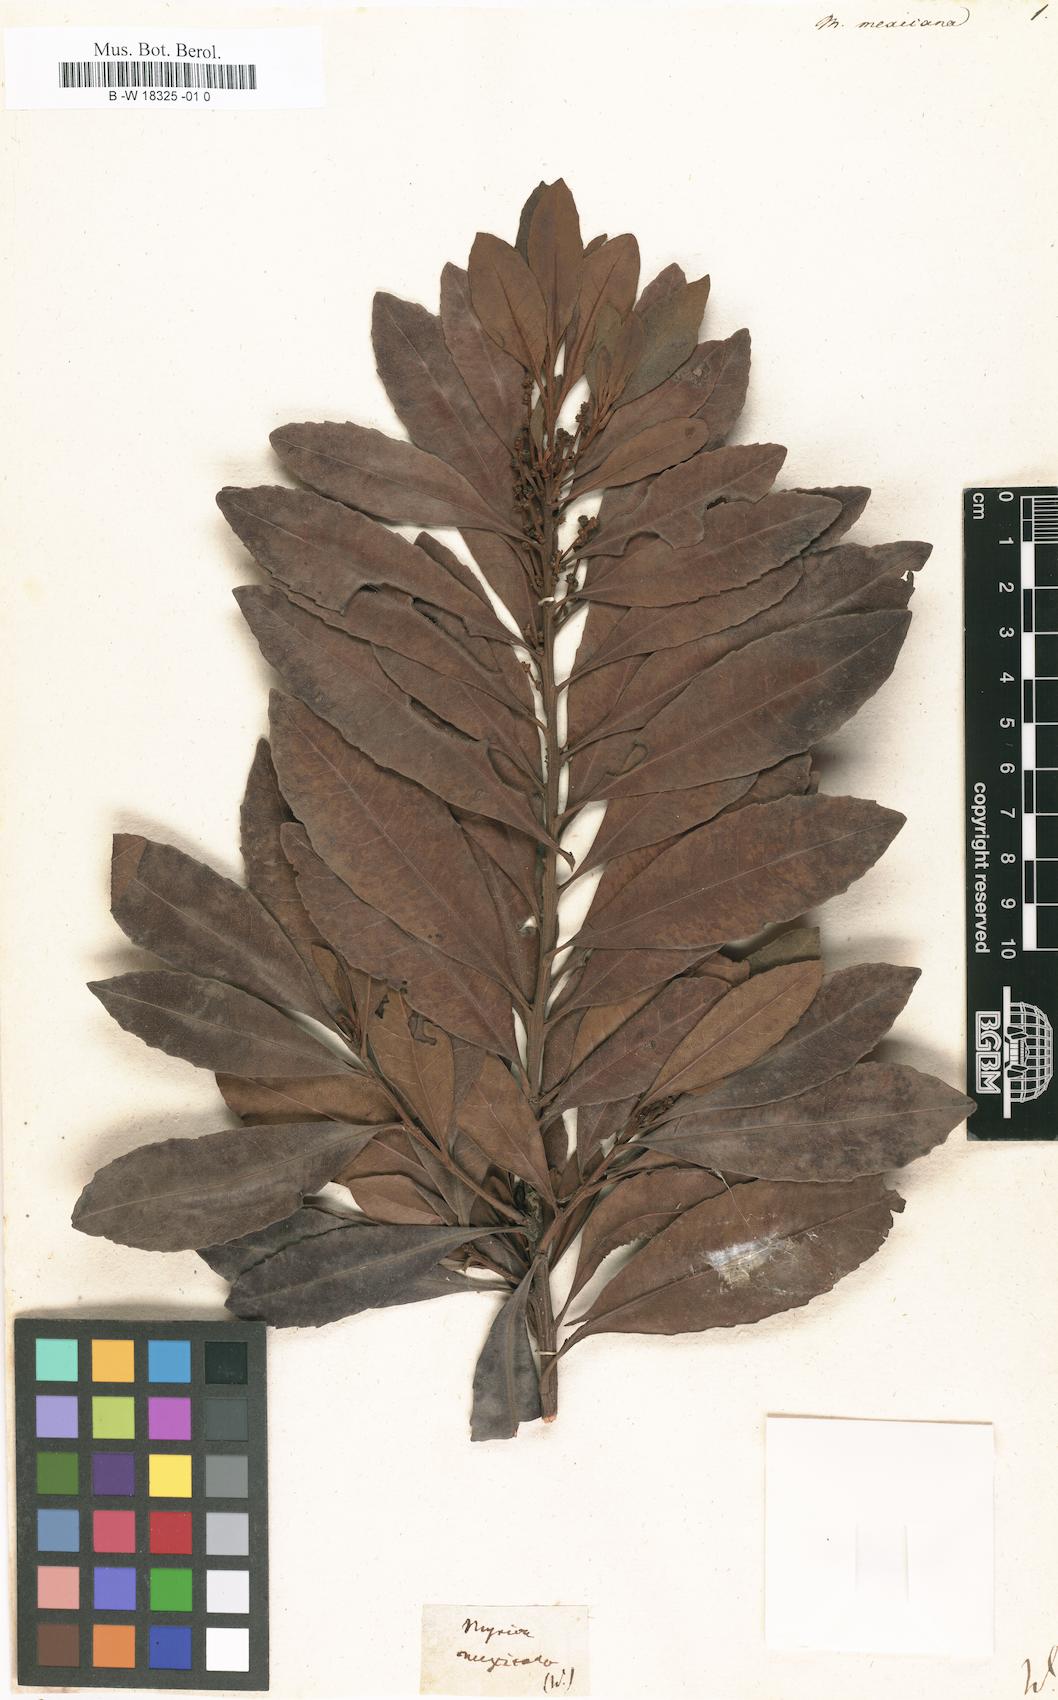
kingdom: Plantae
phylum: Tracheophyta
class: Magnoliopsida
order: Fagales
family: Myricaceae
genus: Morella
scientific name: Morella cerifera
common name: Wax myrtle
